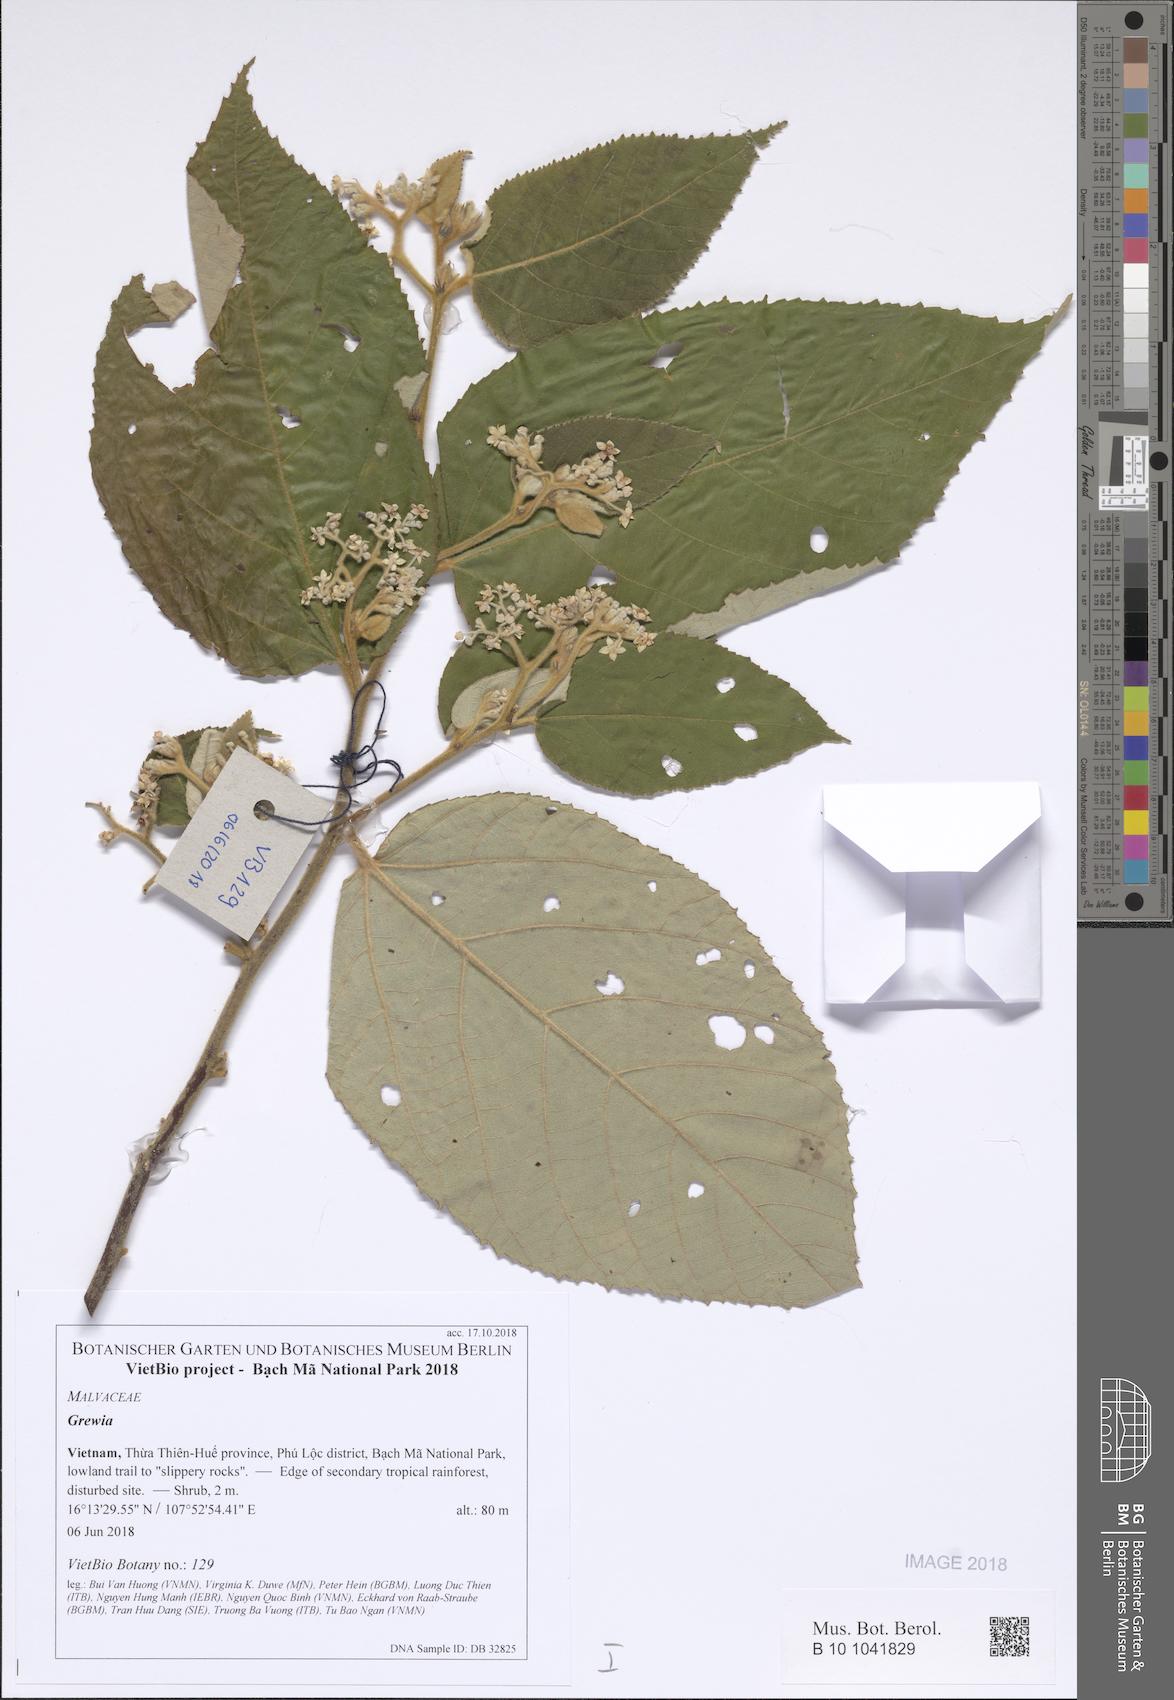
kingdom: Plantae
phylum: Tracheophyta
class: Magnoliopsida
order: Malvales
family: Malvaceae
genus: Grewia
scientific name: Grewia
